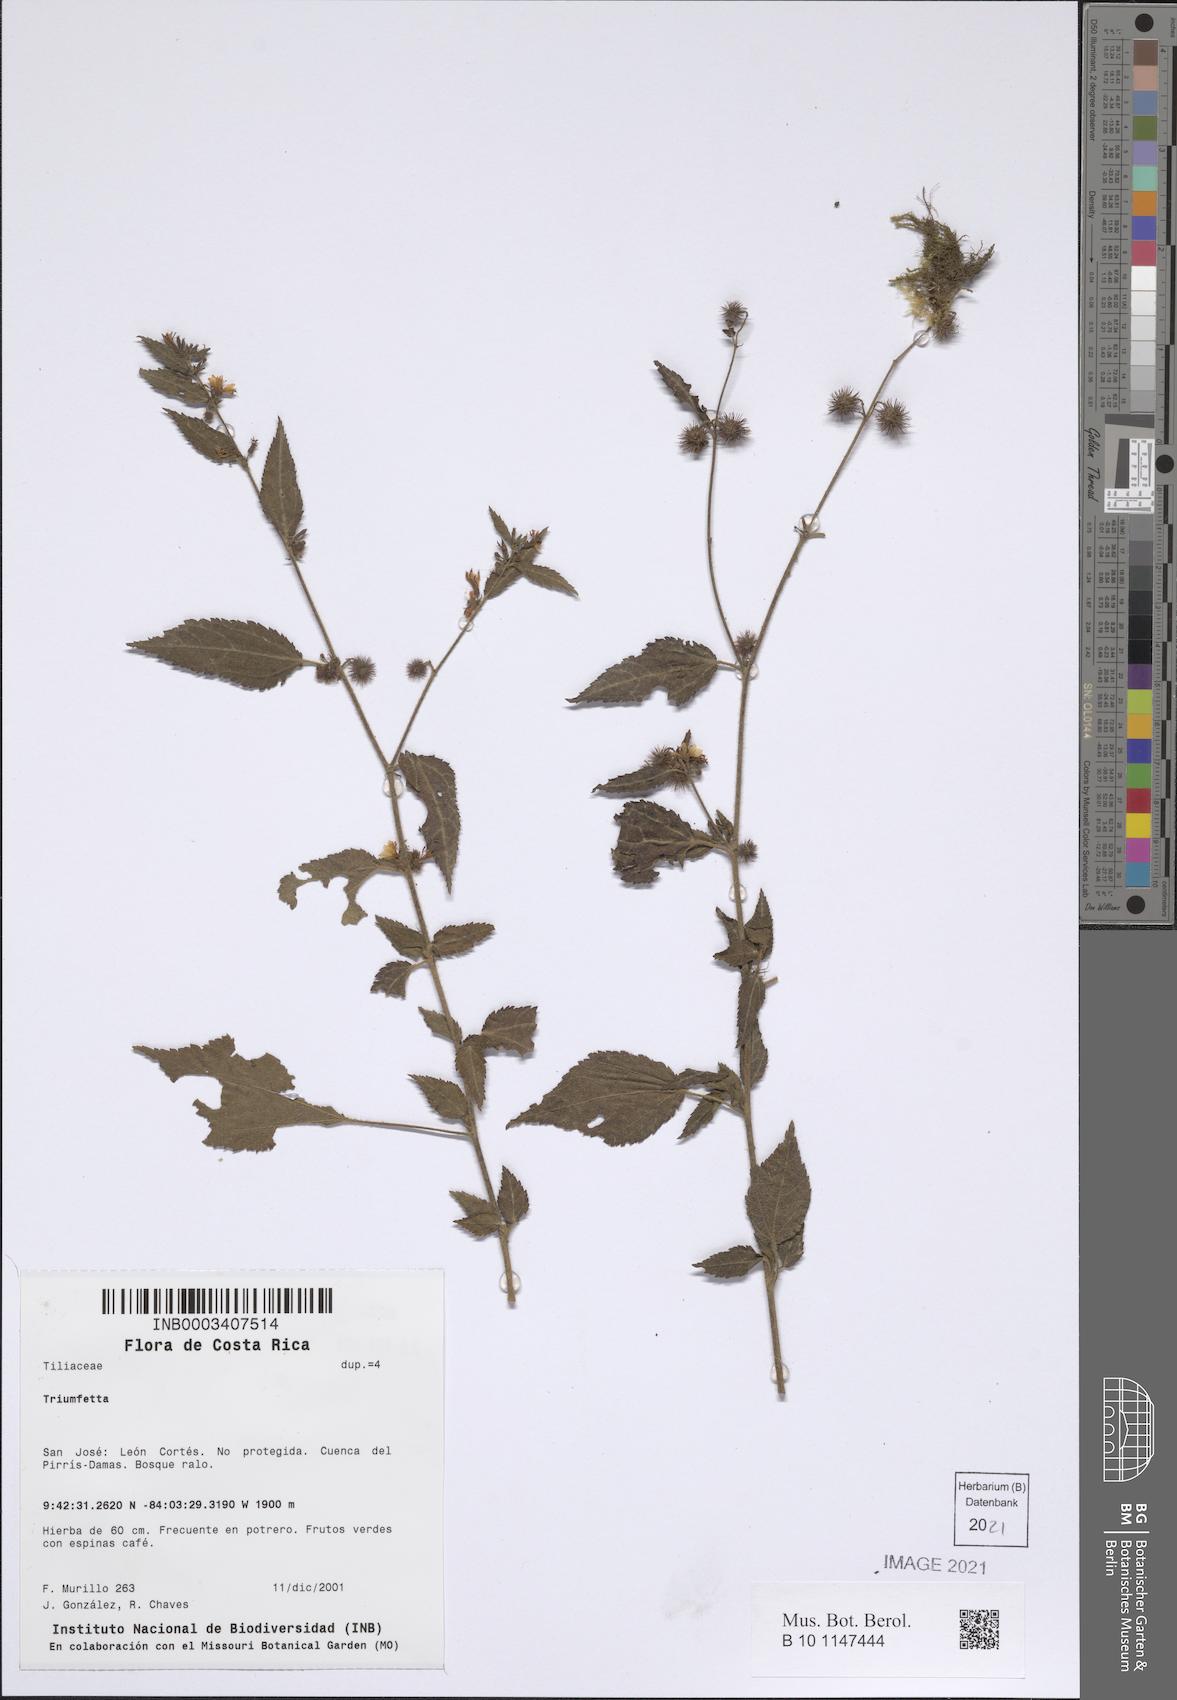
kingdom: Plantae
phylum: Tracheophyta
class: Magnoliopsida
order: Malvales
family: Malvaceae
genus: Triumfetta
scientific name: Triumfetta
